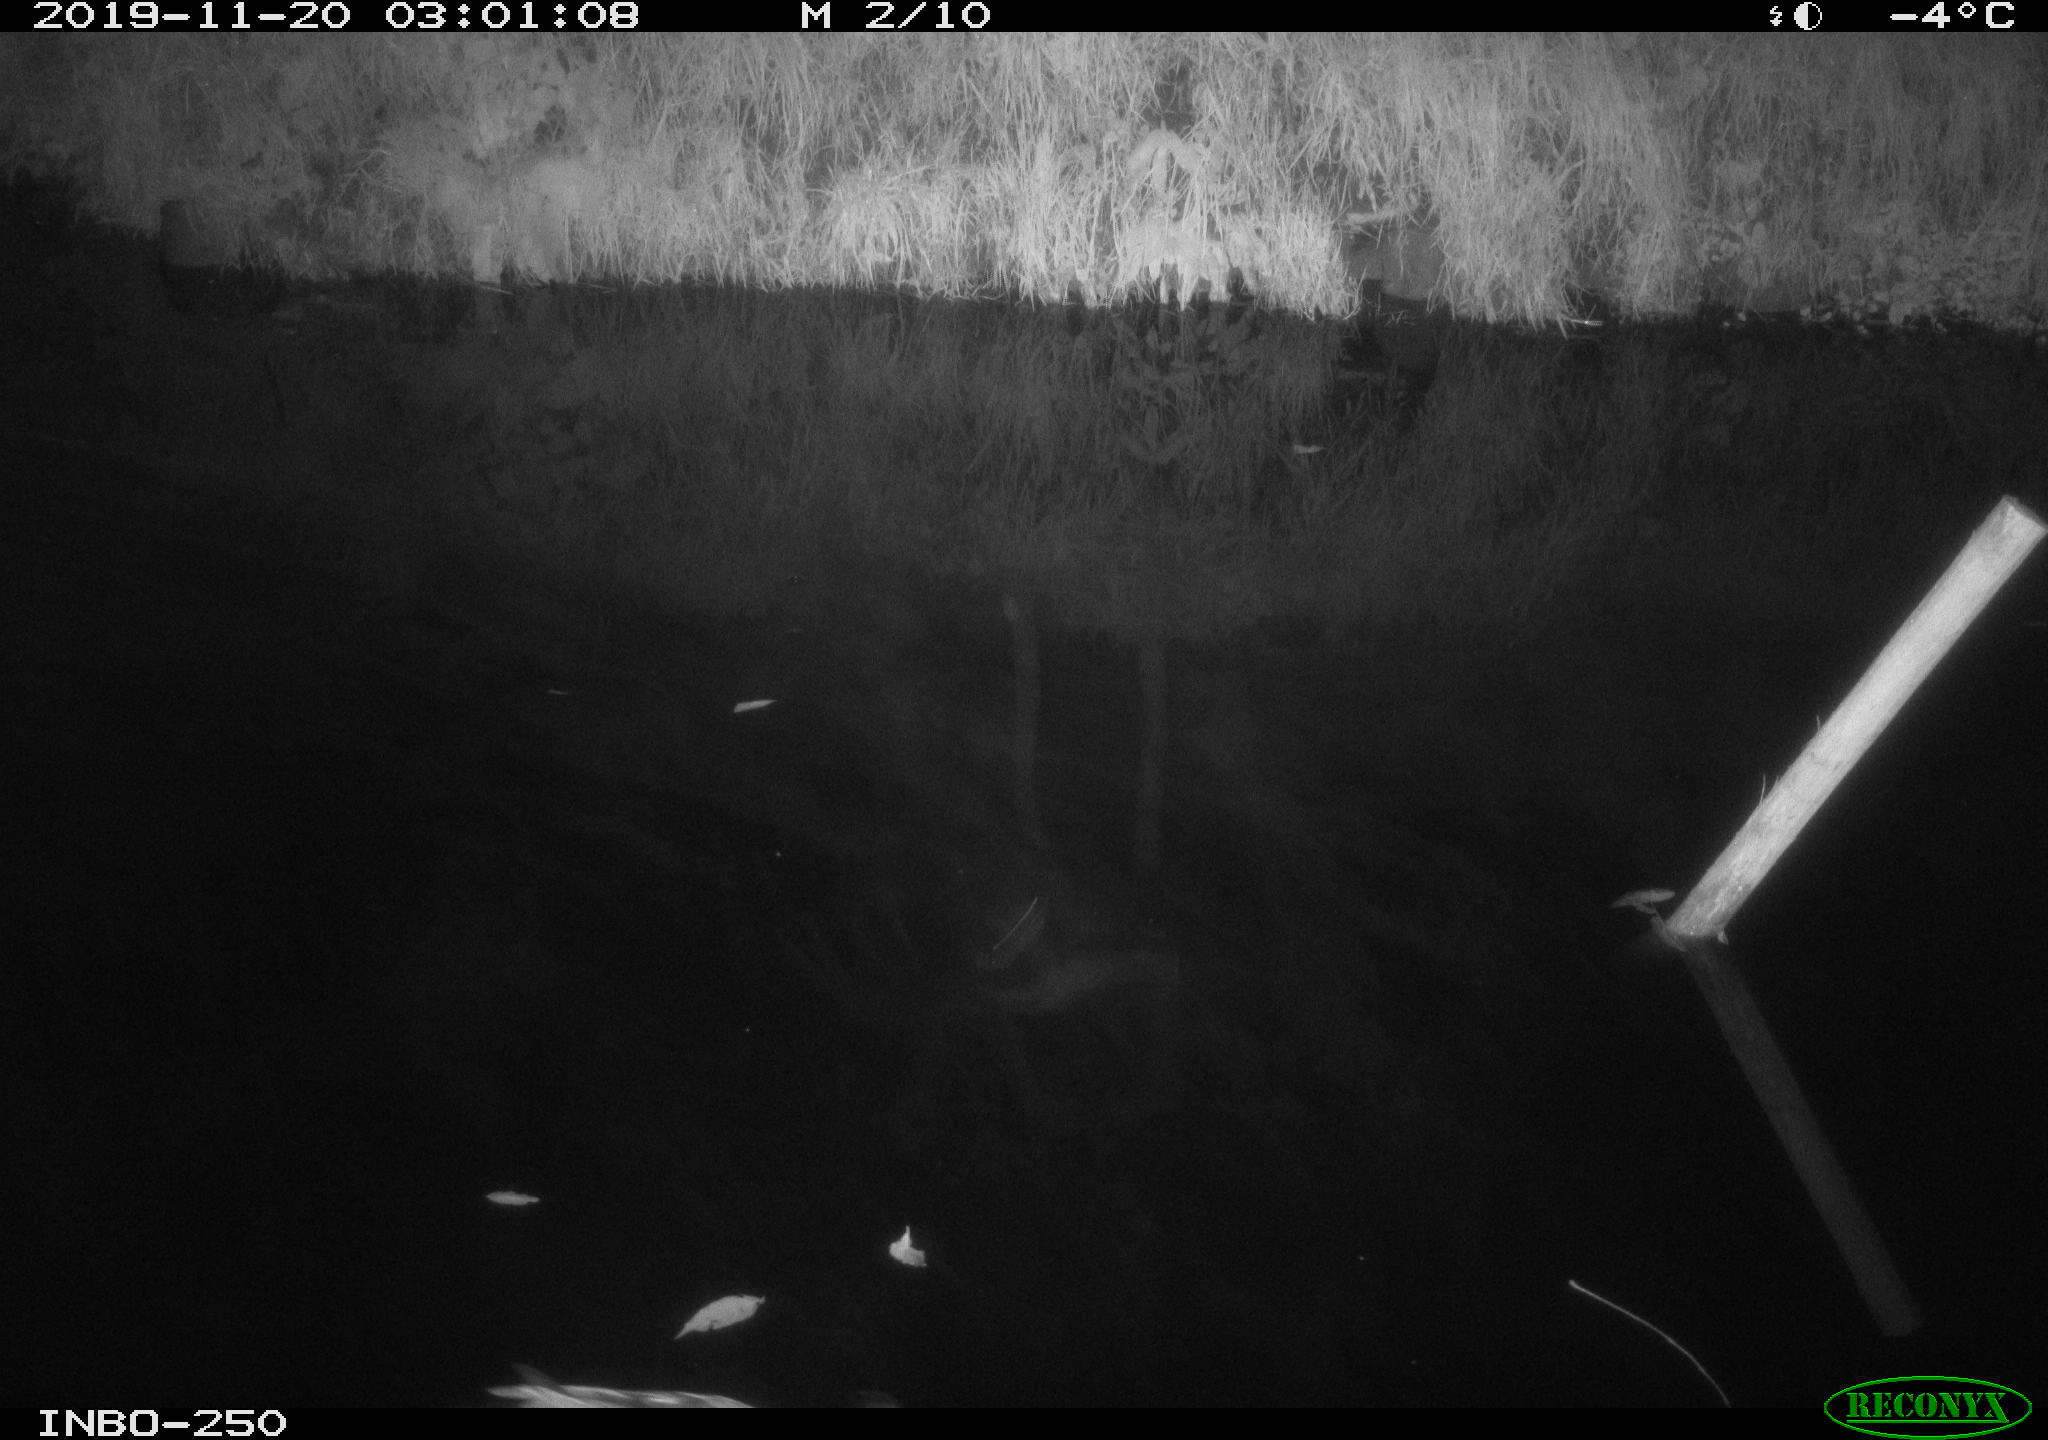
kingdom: Animalia
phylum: Chordata
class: Aves
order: Anseriformes
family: Anatidae
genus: Anas
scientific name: Anas platyrhynchos
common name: Mallard
